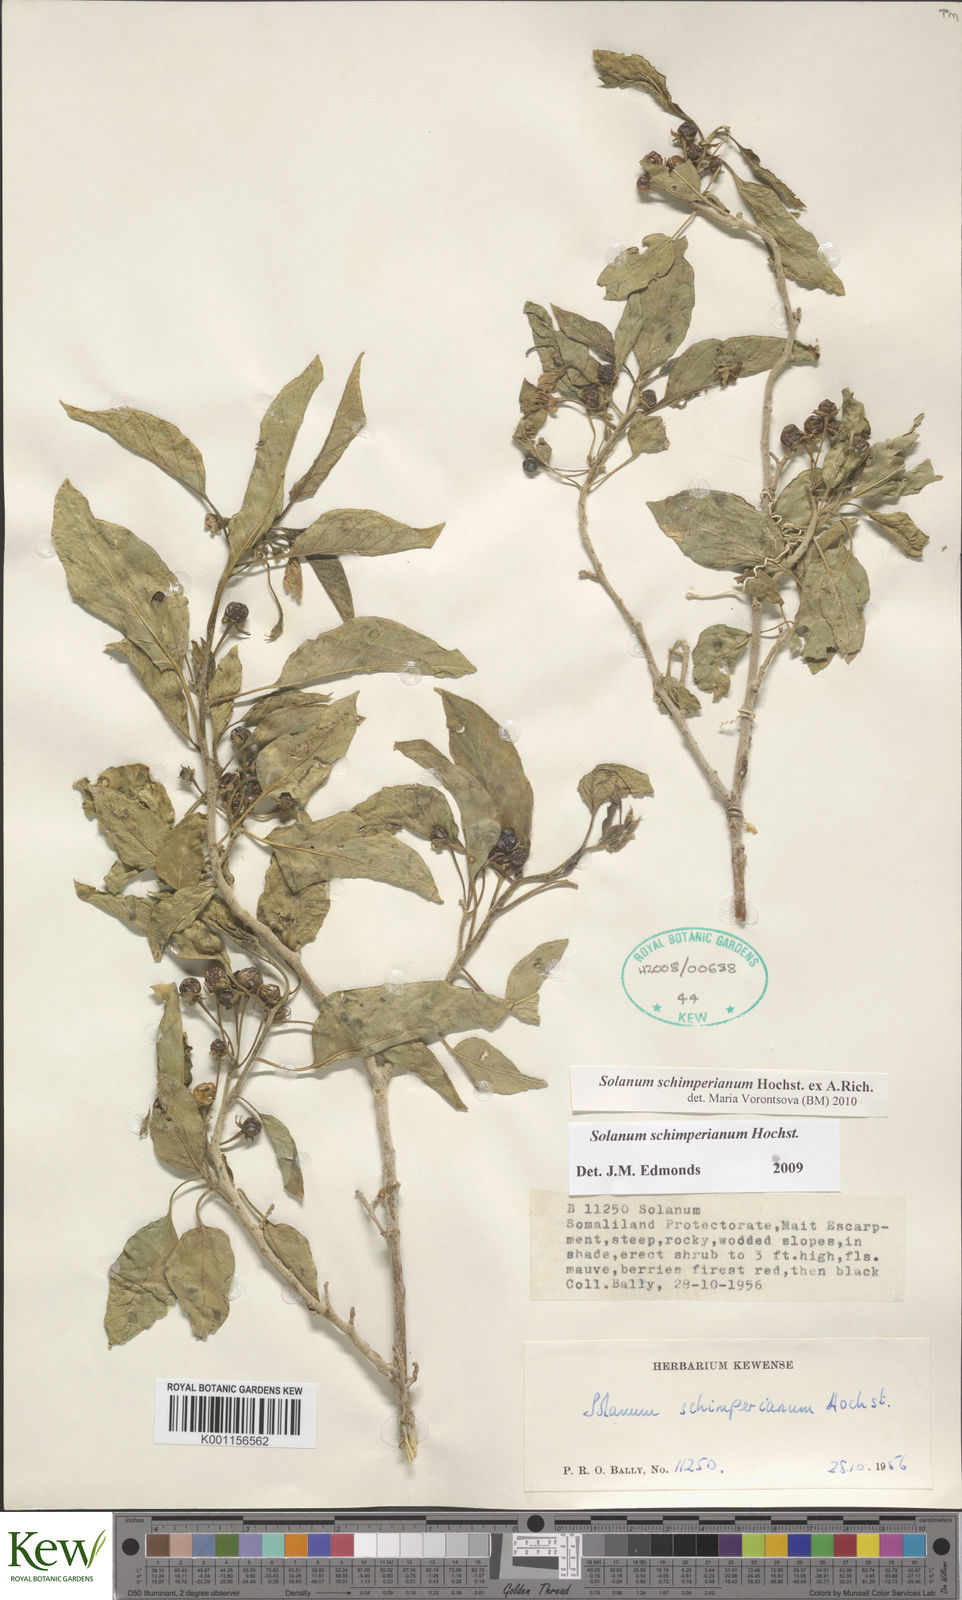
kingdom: Plantae
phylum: Tracheophyta
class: Magnoliopsida
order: Solanales
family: Solanaceae
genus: Solanum
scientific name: Solanum
